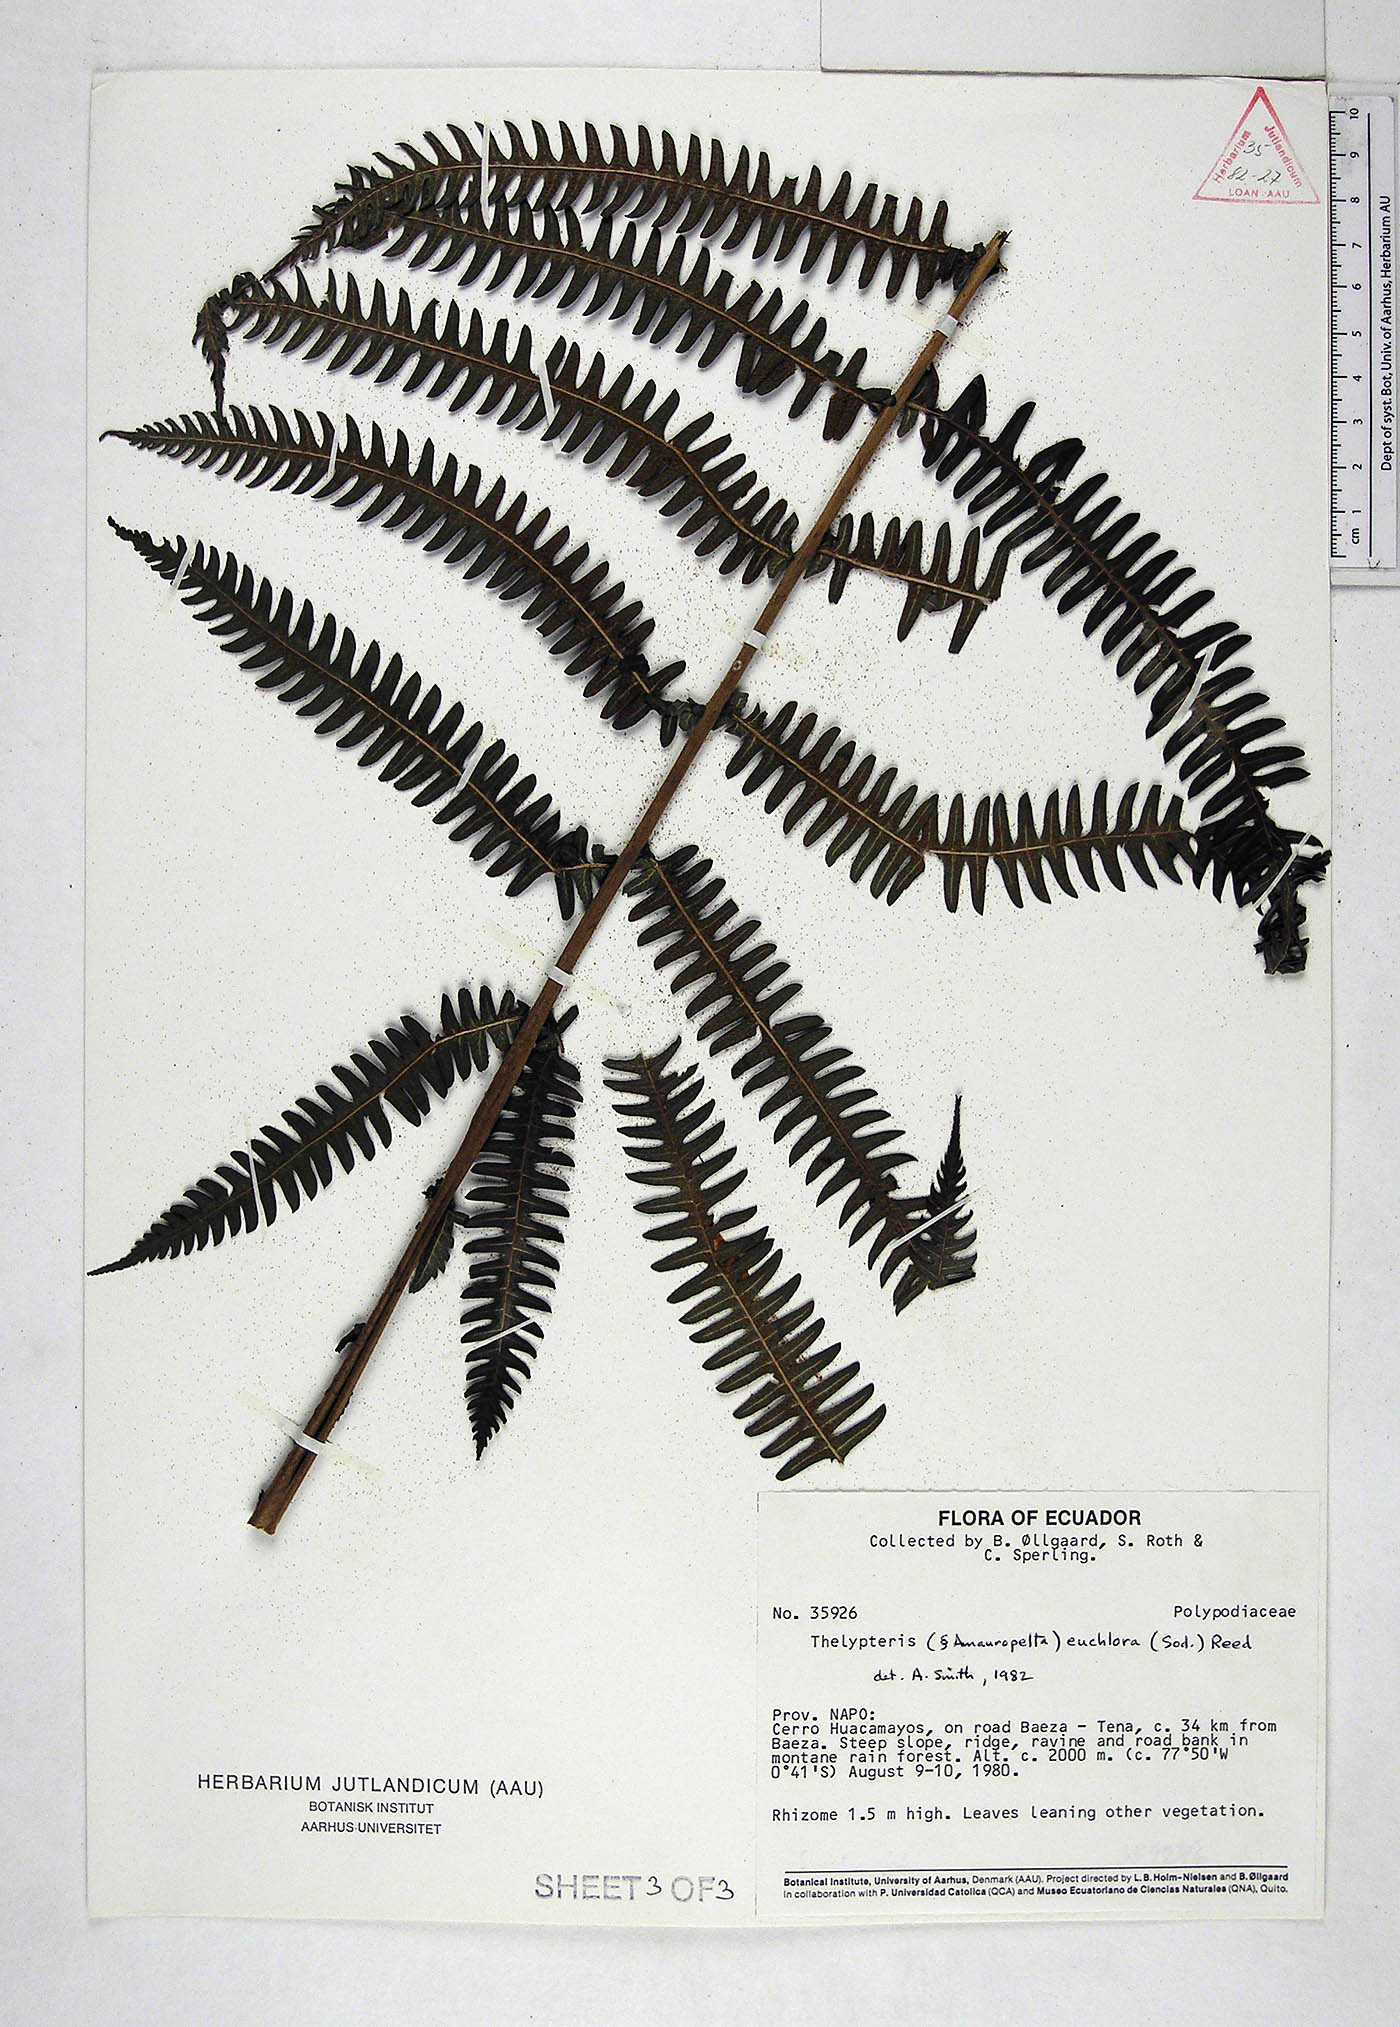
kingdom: Plantae
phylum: Tracheophyta
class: Polypodiopsida
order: Polypodiales
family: Thelypteridaceae
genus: Amauropelta
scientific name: Amauropelta euchlora
